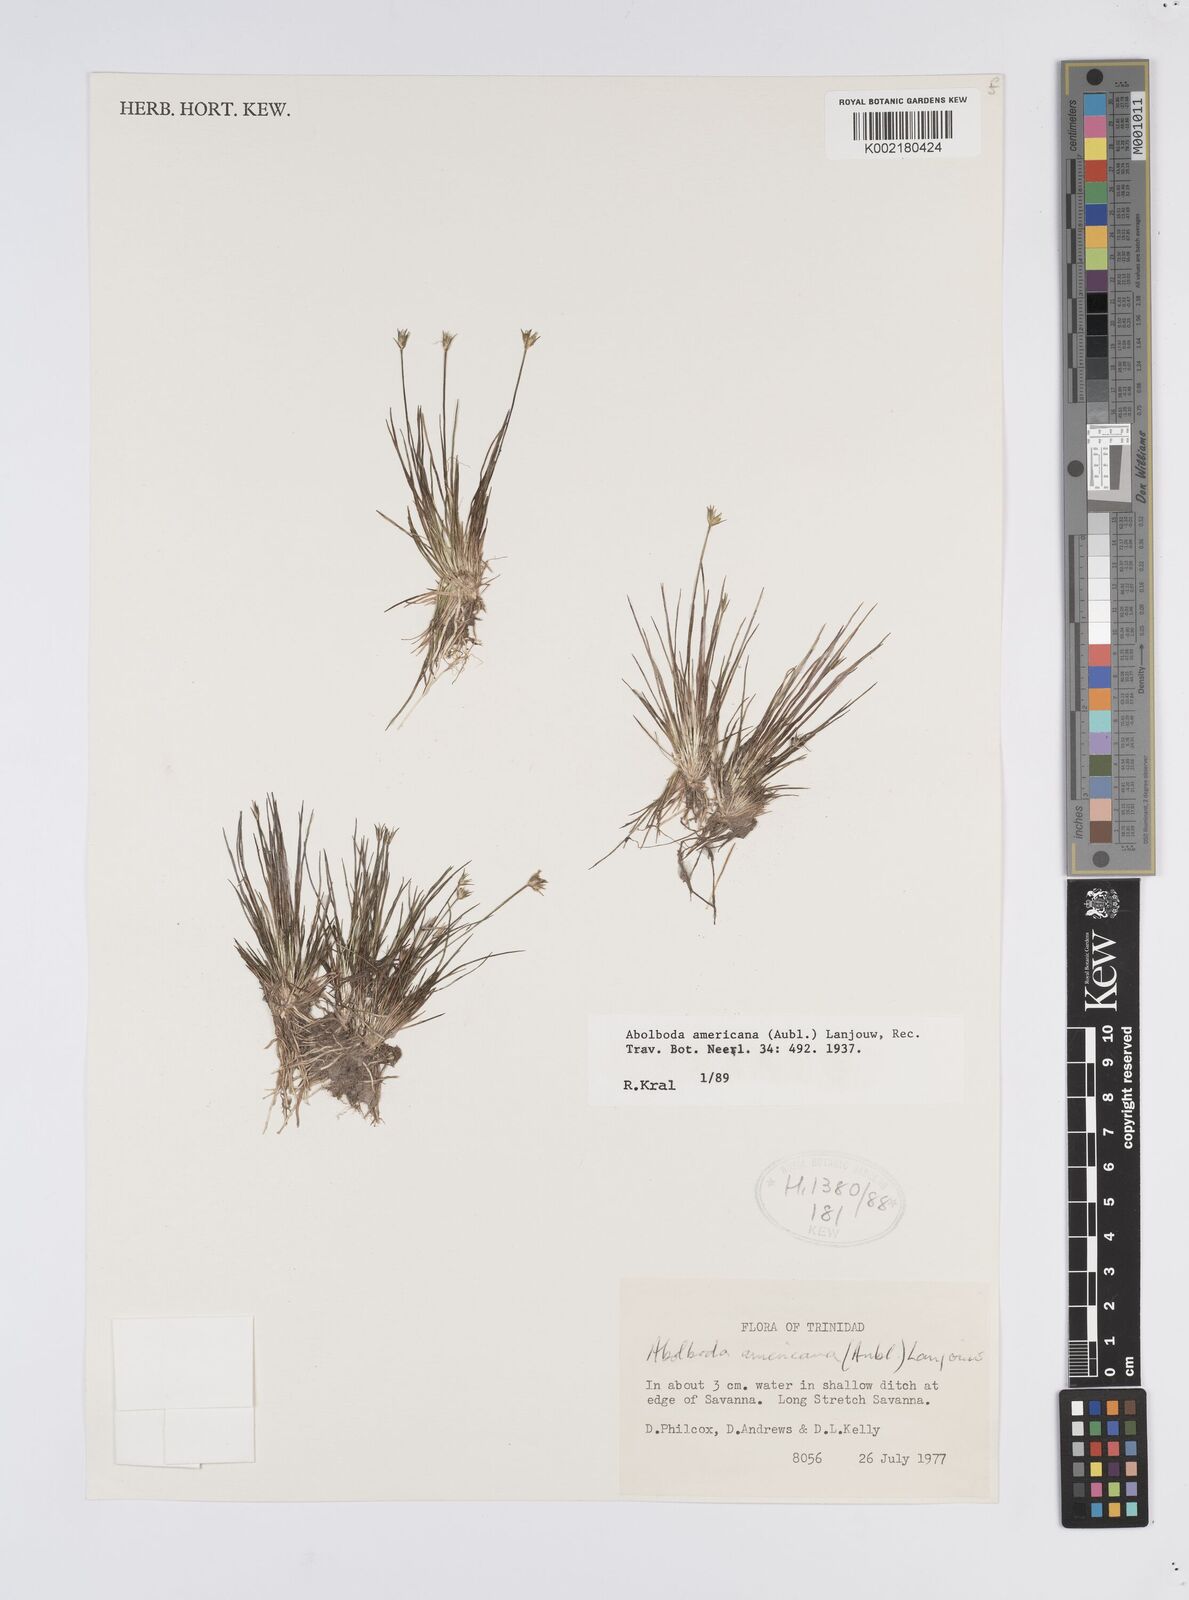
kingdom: Plantae
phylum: Tracheophyta
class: Liliopsida
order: Poales
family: Xyridaceae
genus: Abolboda
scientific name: Abolboda americana
